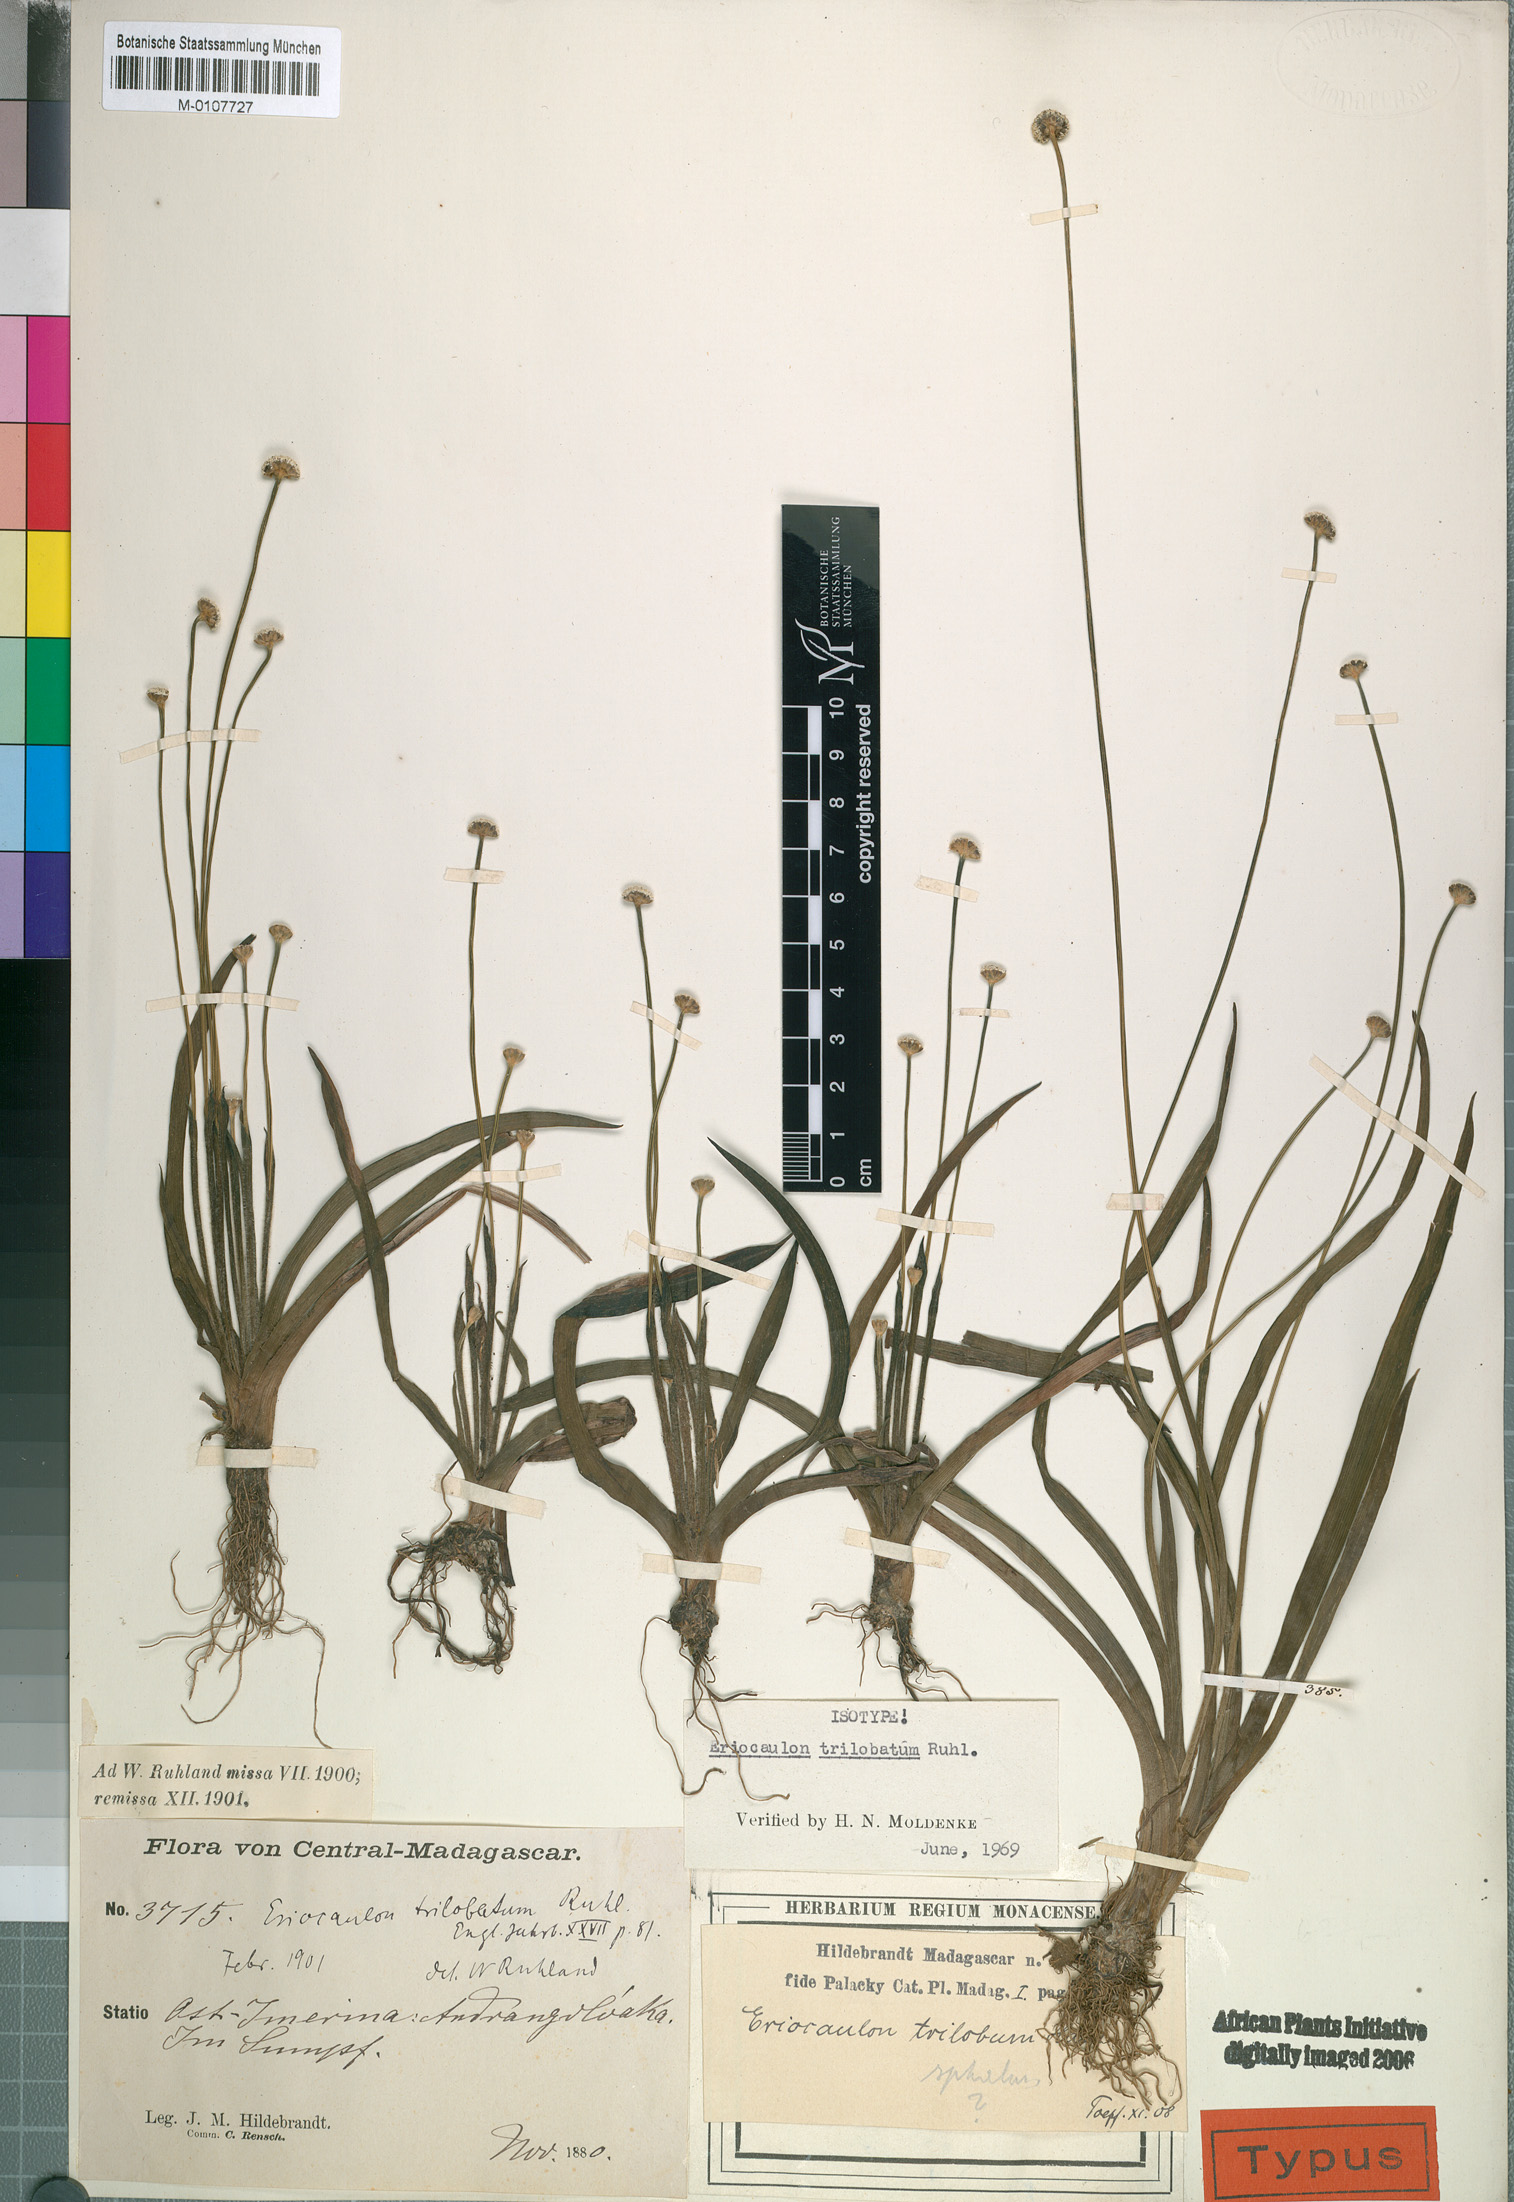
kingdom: Plantae
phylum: Tracheophyta
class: Liliopsida
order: Poales
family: Eriocaulaceae
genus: Eriocaulon
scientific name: Eriocaulon trilobatum
